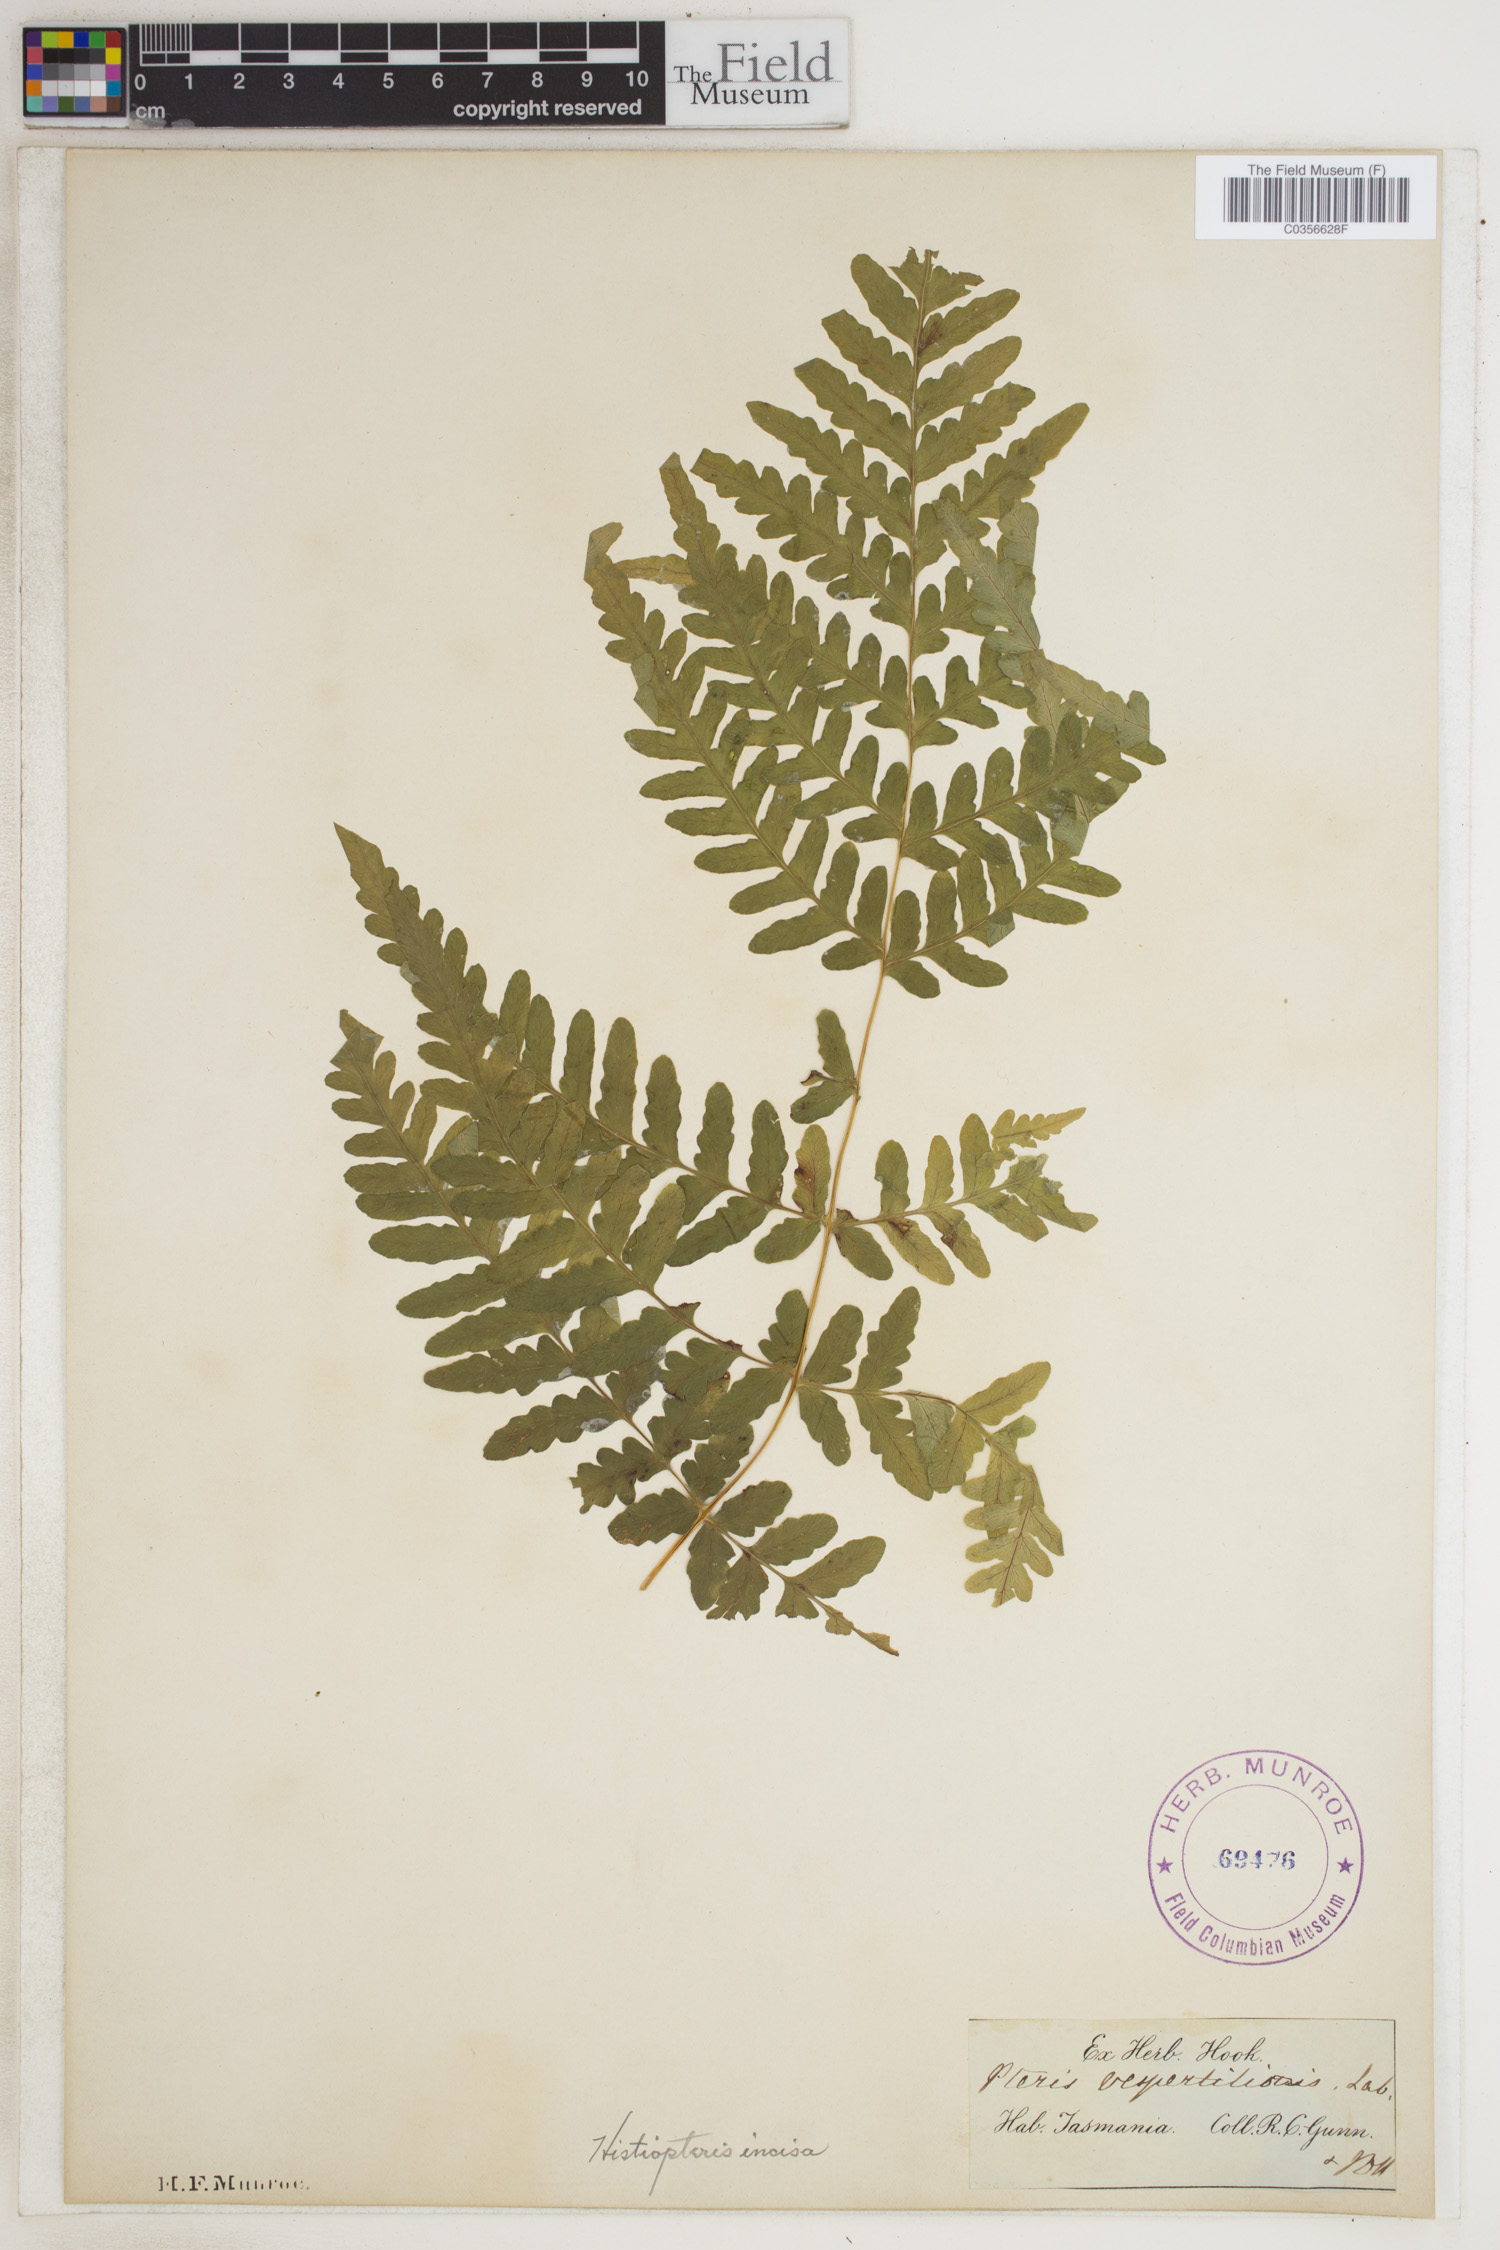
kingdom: Plantae
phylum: Tracheophyta
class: Polypodiopsida
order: Polypodiales
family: Dennstaedtiaceae
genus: Histiopteris
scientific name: Histiopteris incisa
